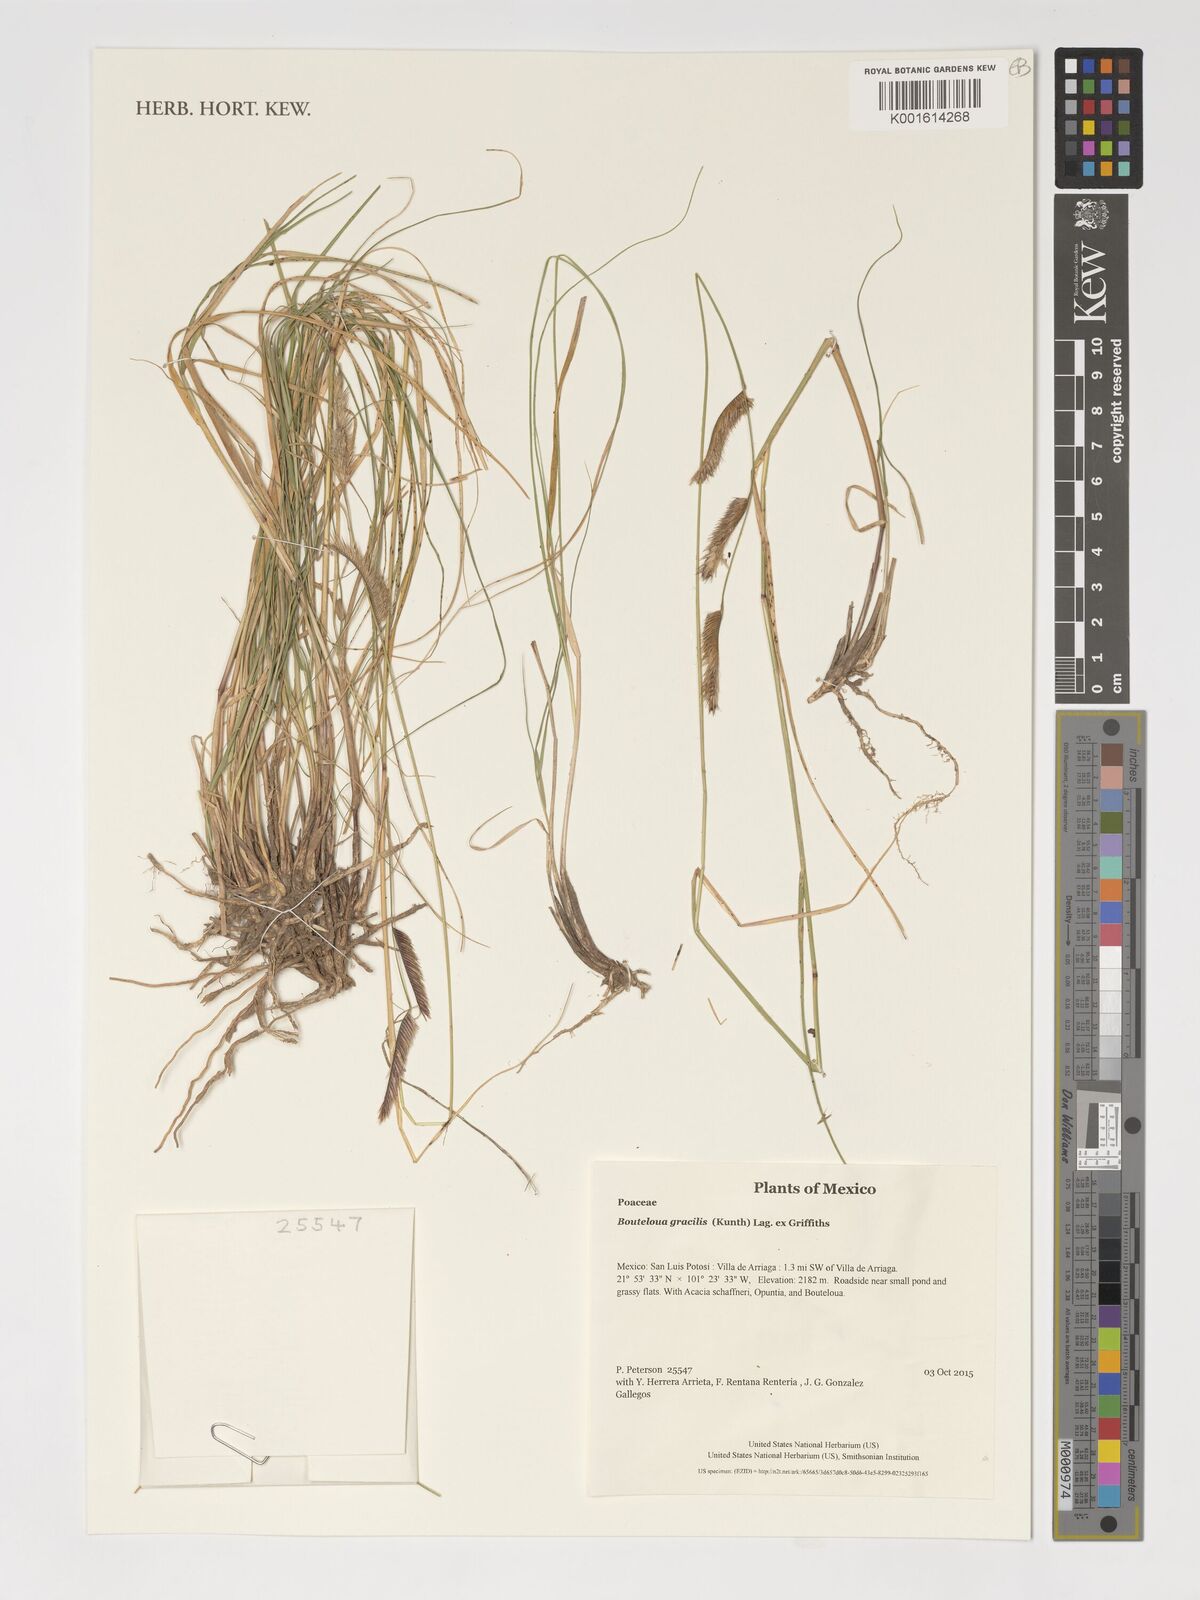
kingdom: Plantae
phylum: Tracheophyta
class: Liliopsida
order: Poales
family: Poaceae
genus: Bouteloua
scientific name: Bouteloua gracilis
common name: Blue grama
